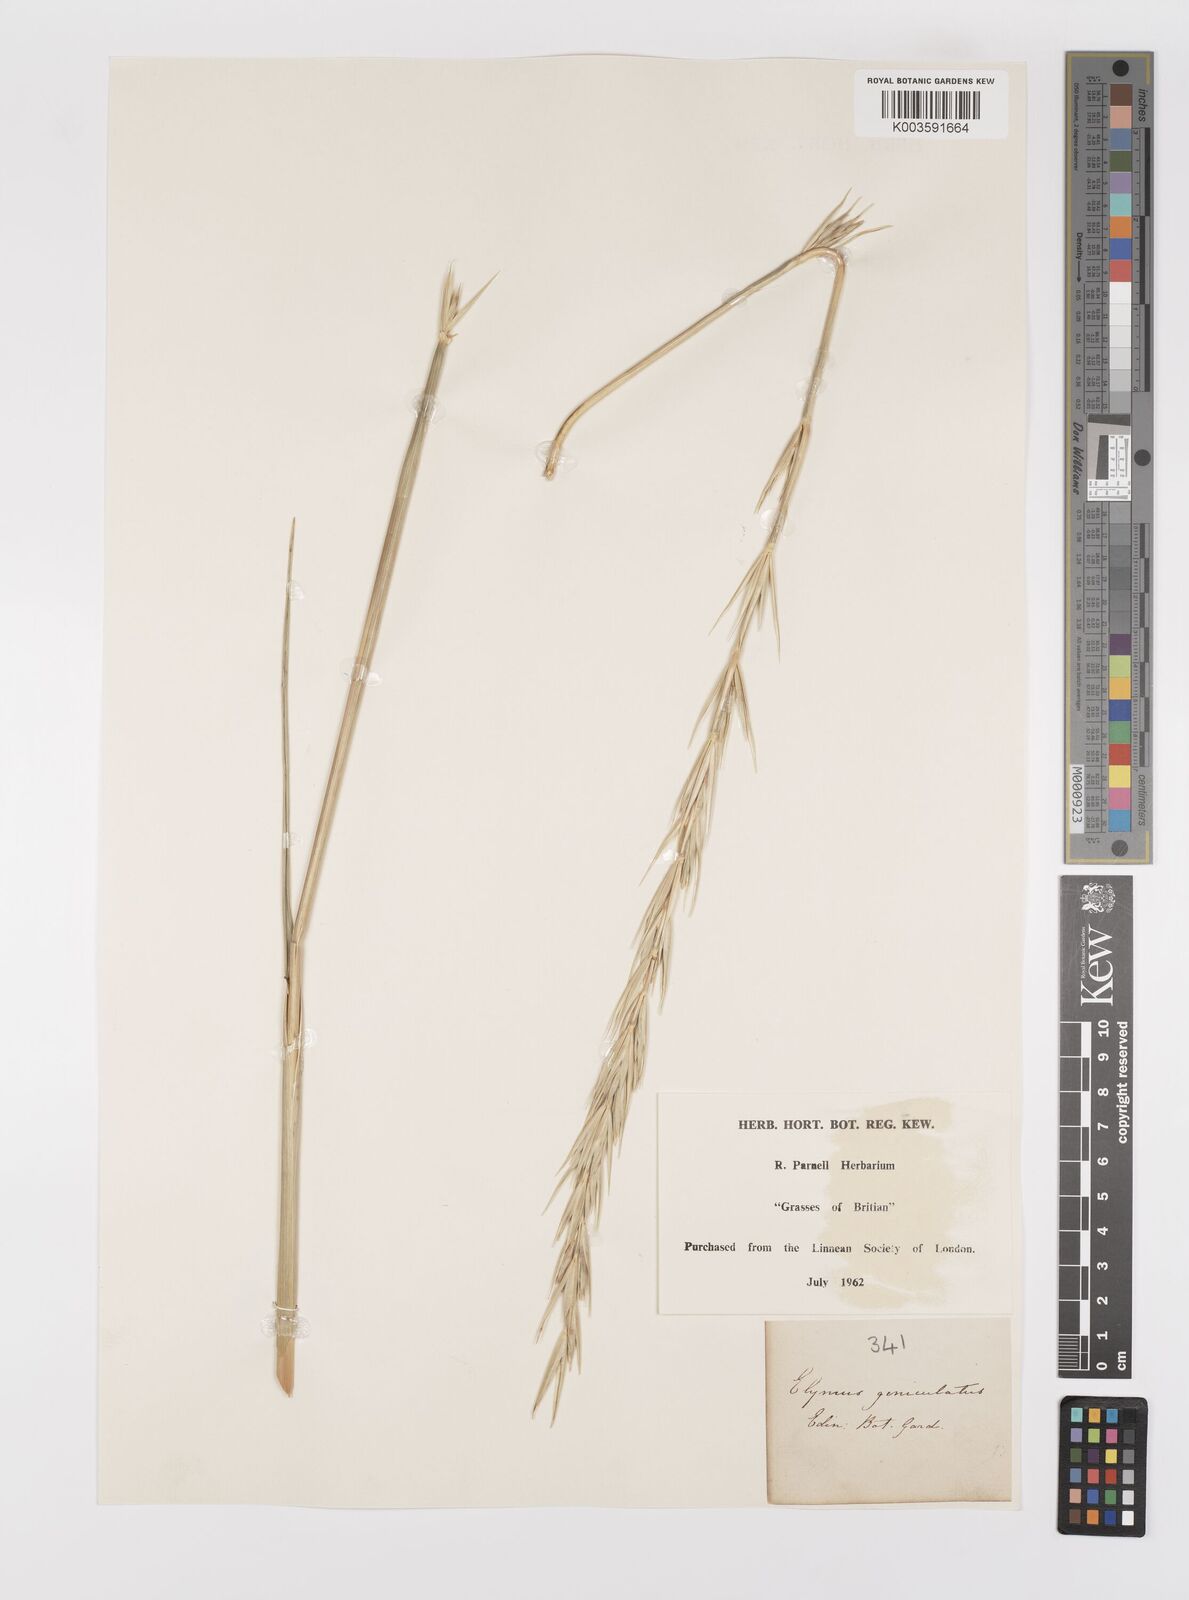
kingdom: Plantae
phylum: Tracheophyta
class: Liliopsida
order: Poales
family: Poaceae
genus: Leymus
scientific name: Leymus arenarius
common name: Lyme-grass
